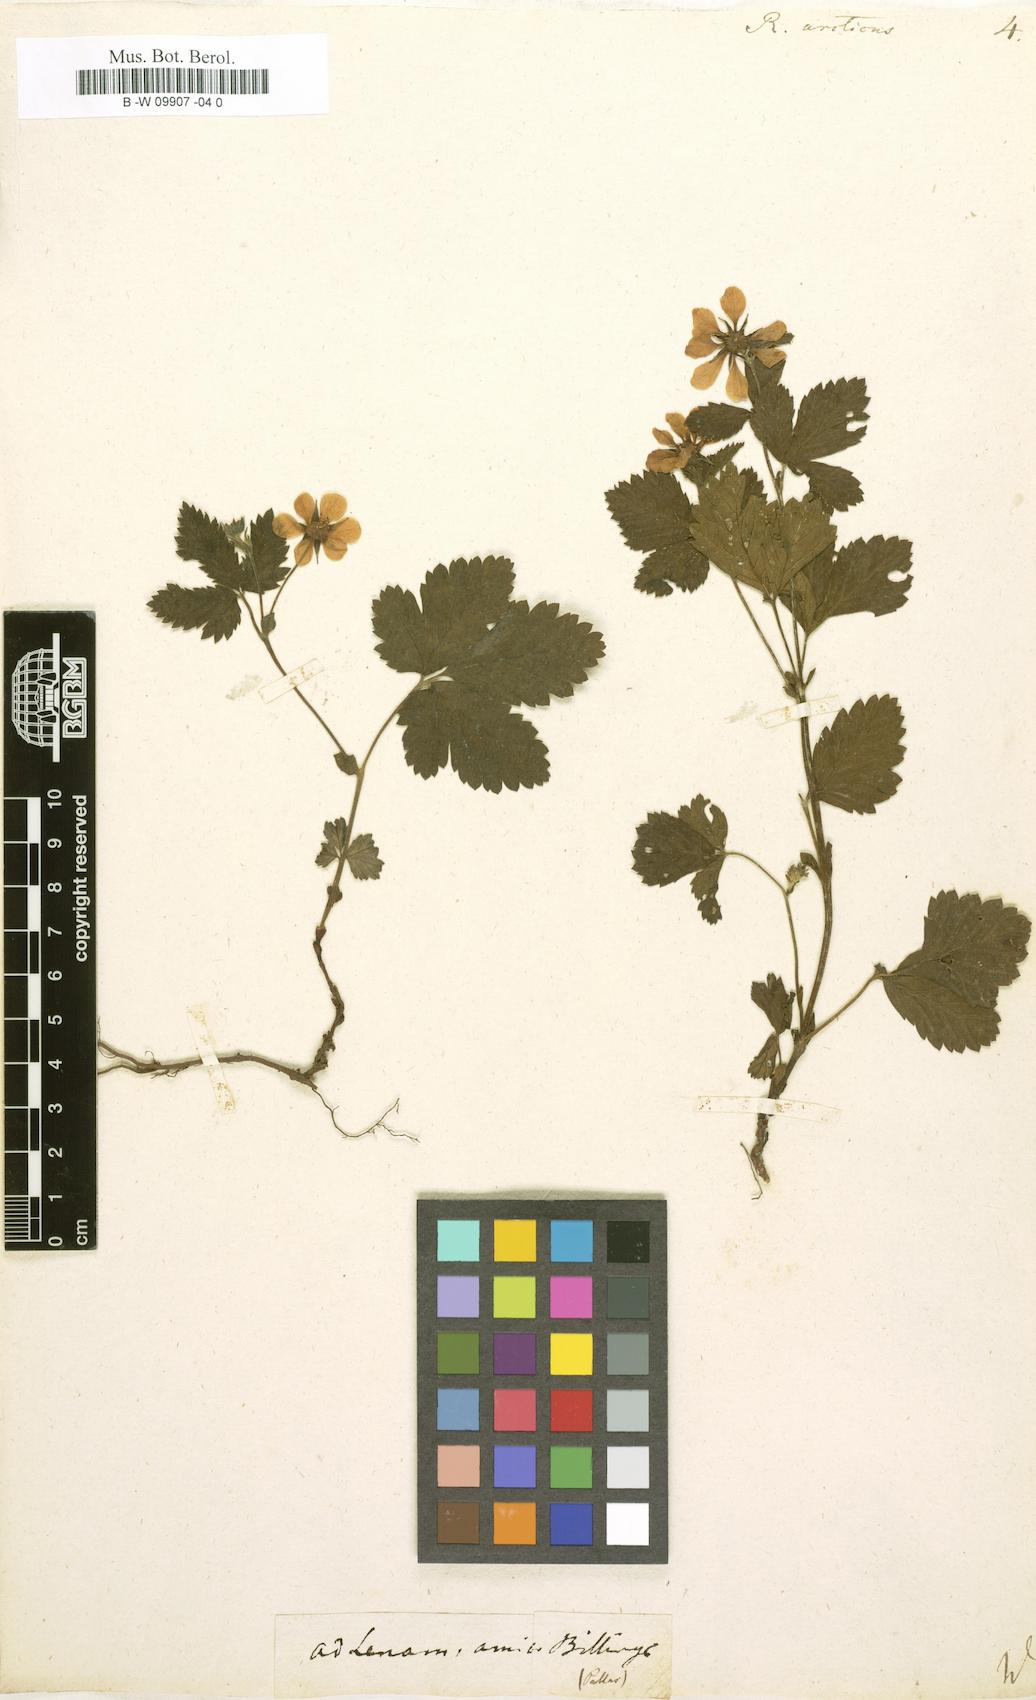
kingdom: Plantae
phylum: Tracheophyta
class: Magnoliopsida
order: Rosales
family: Rosaceae
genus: Rubus
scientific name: Rubus arcticus
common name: Arctic bramble
